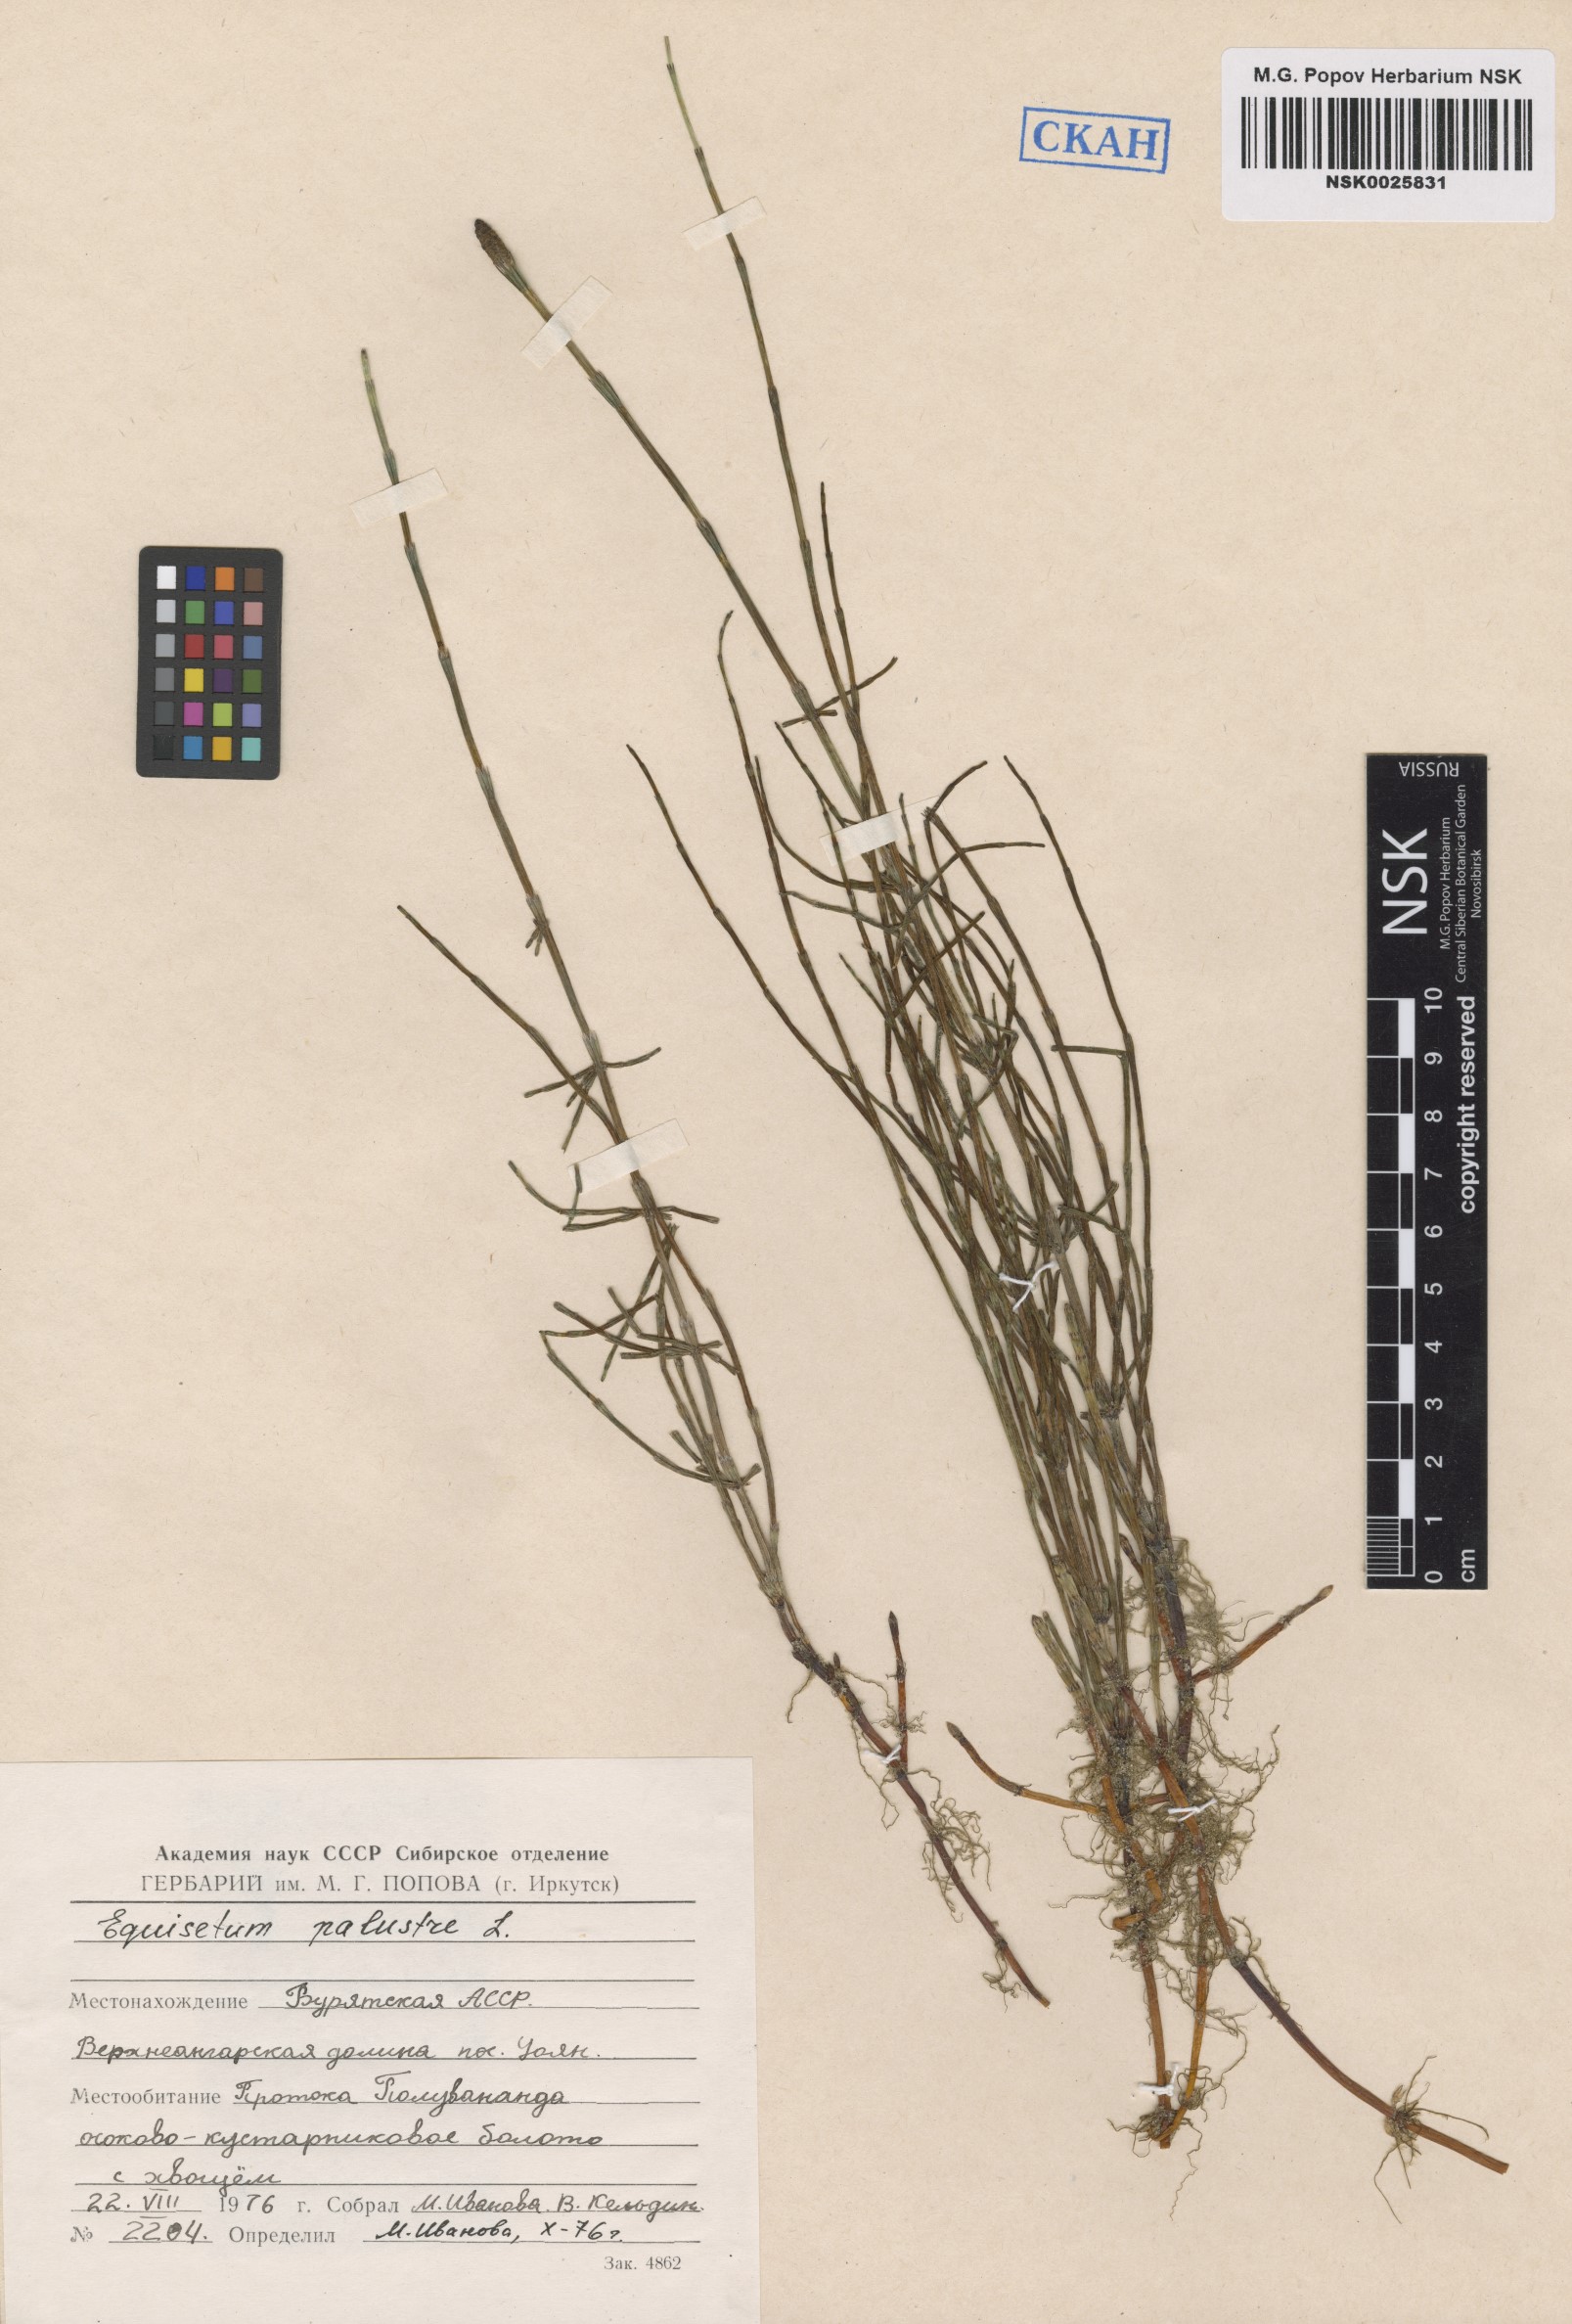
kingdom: Plantae
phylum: Tracheophyta
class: Polypodiopsida
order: Equisetales
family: Equisetaceae
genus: Equisetum
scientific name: Equisetum palustre
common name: Marsh horsetail
